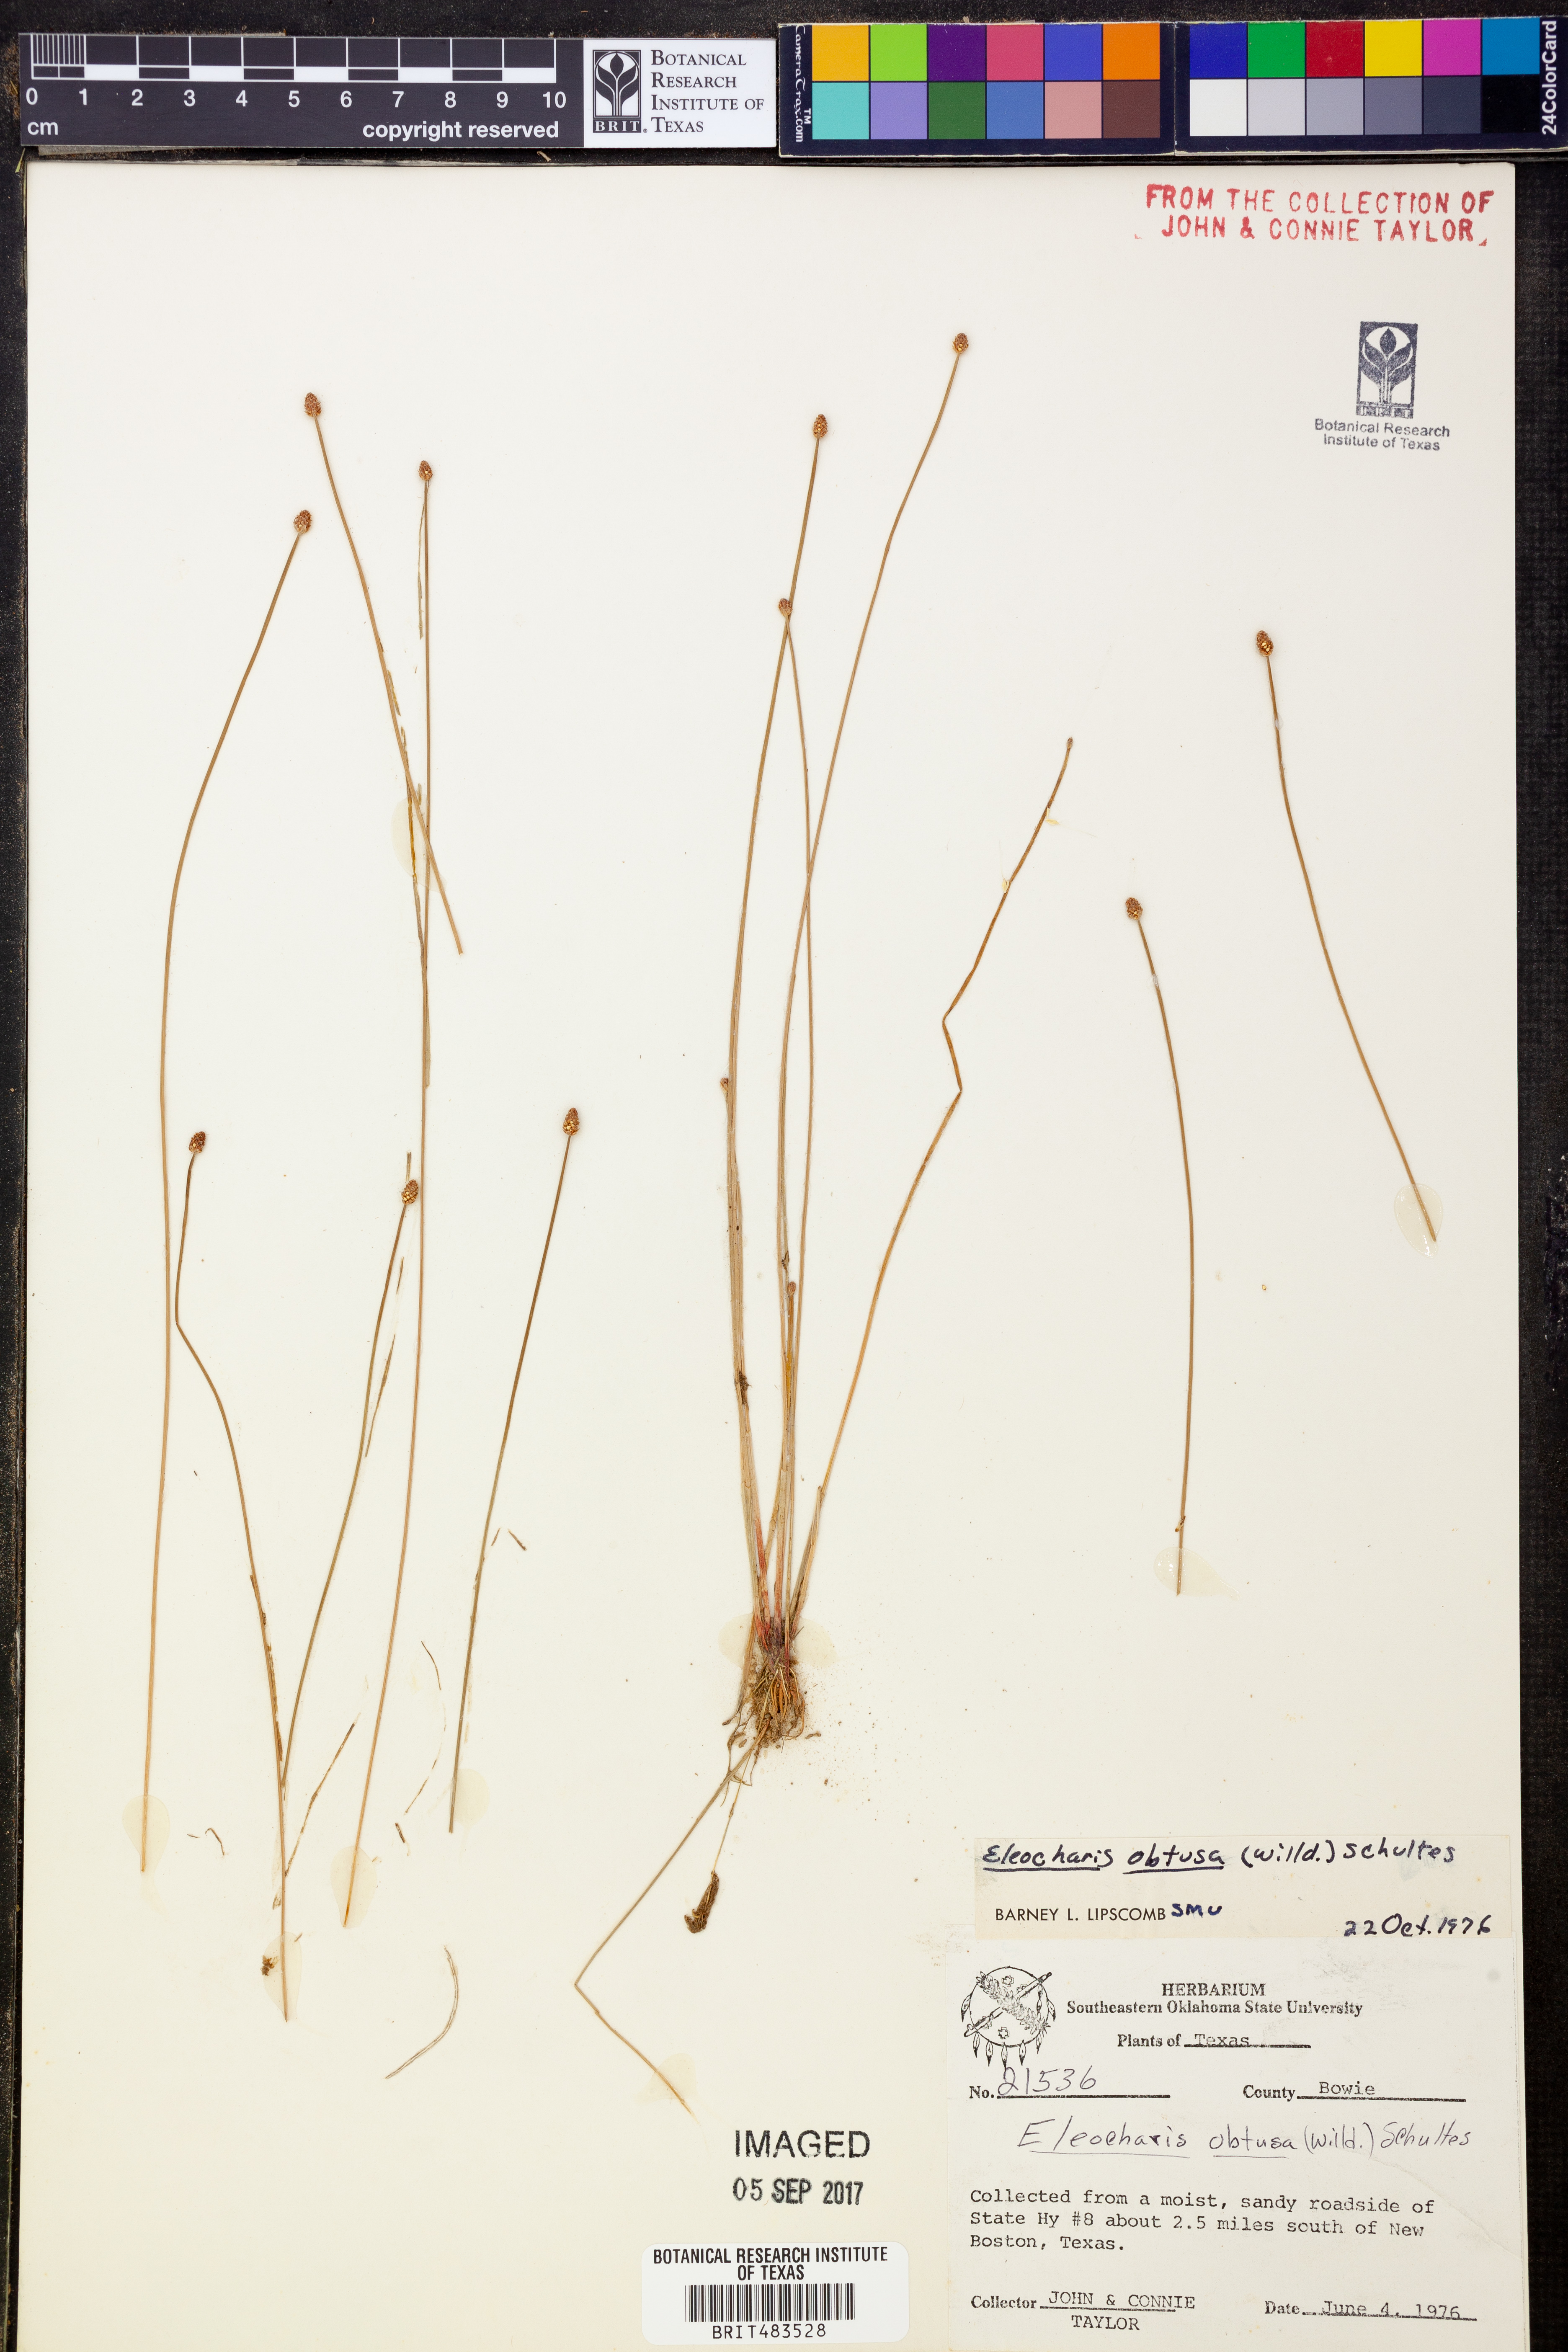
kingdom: Plantae
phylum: Tracheophyta
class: Liliopsida
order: Poales
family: Cyperaceae
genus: Eleocharis
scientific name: Eleocharis obtusa
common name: Blunt spikerush
